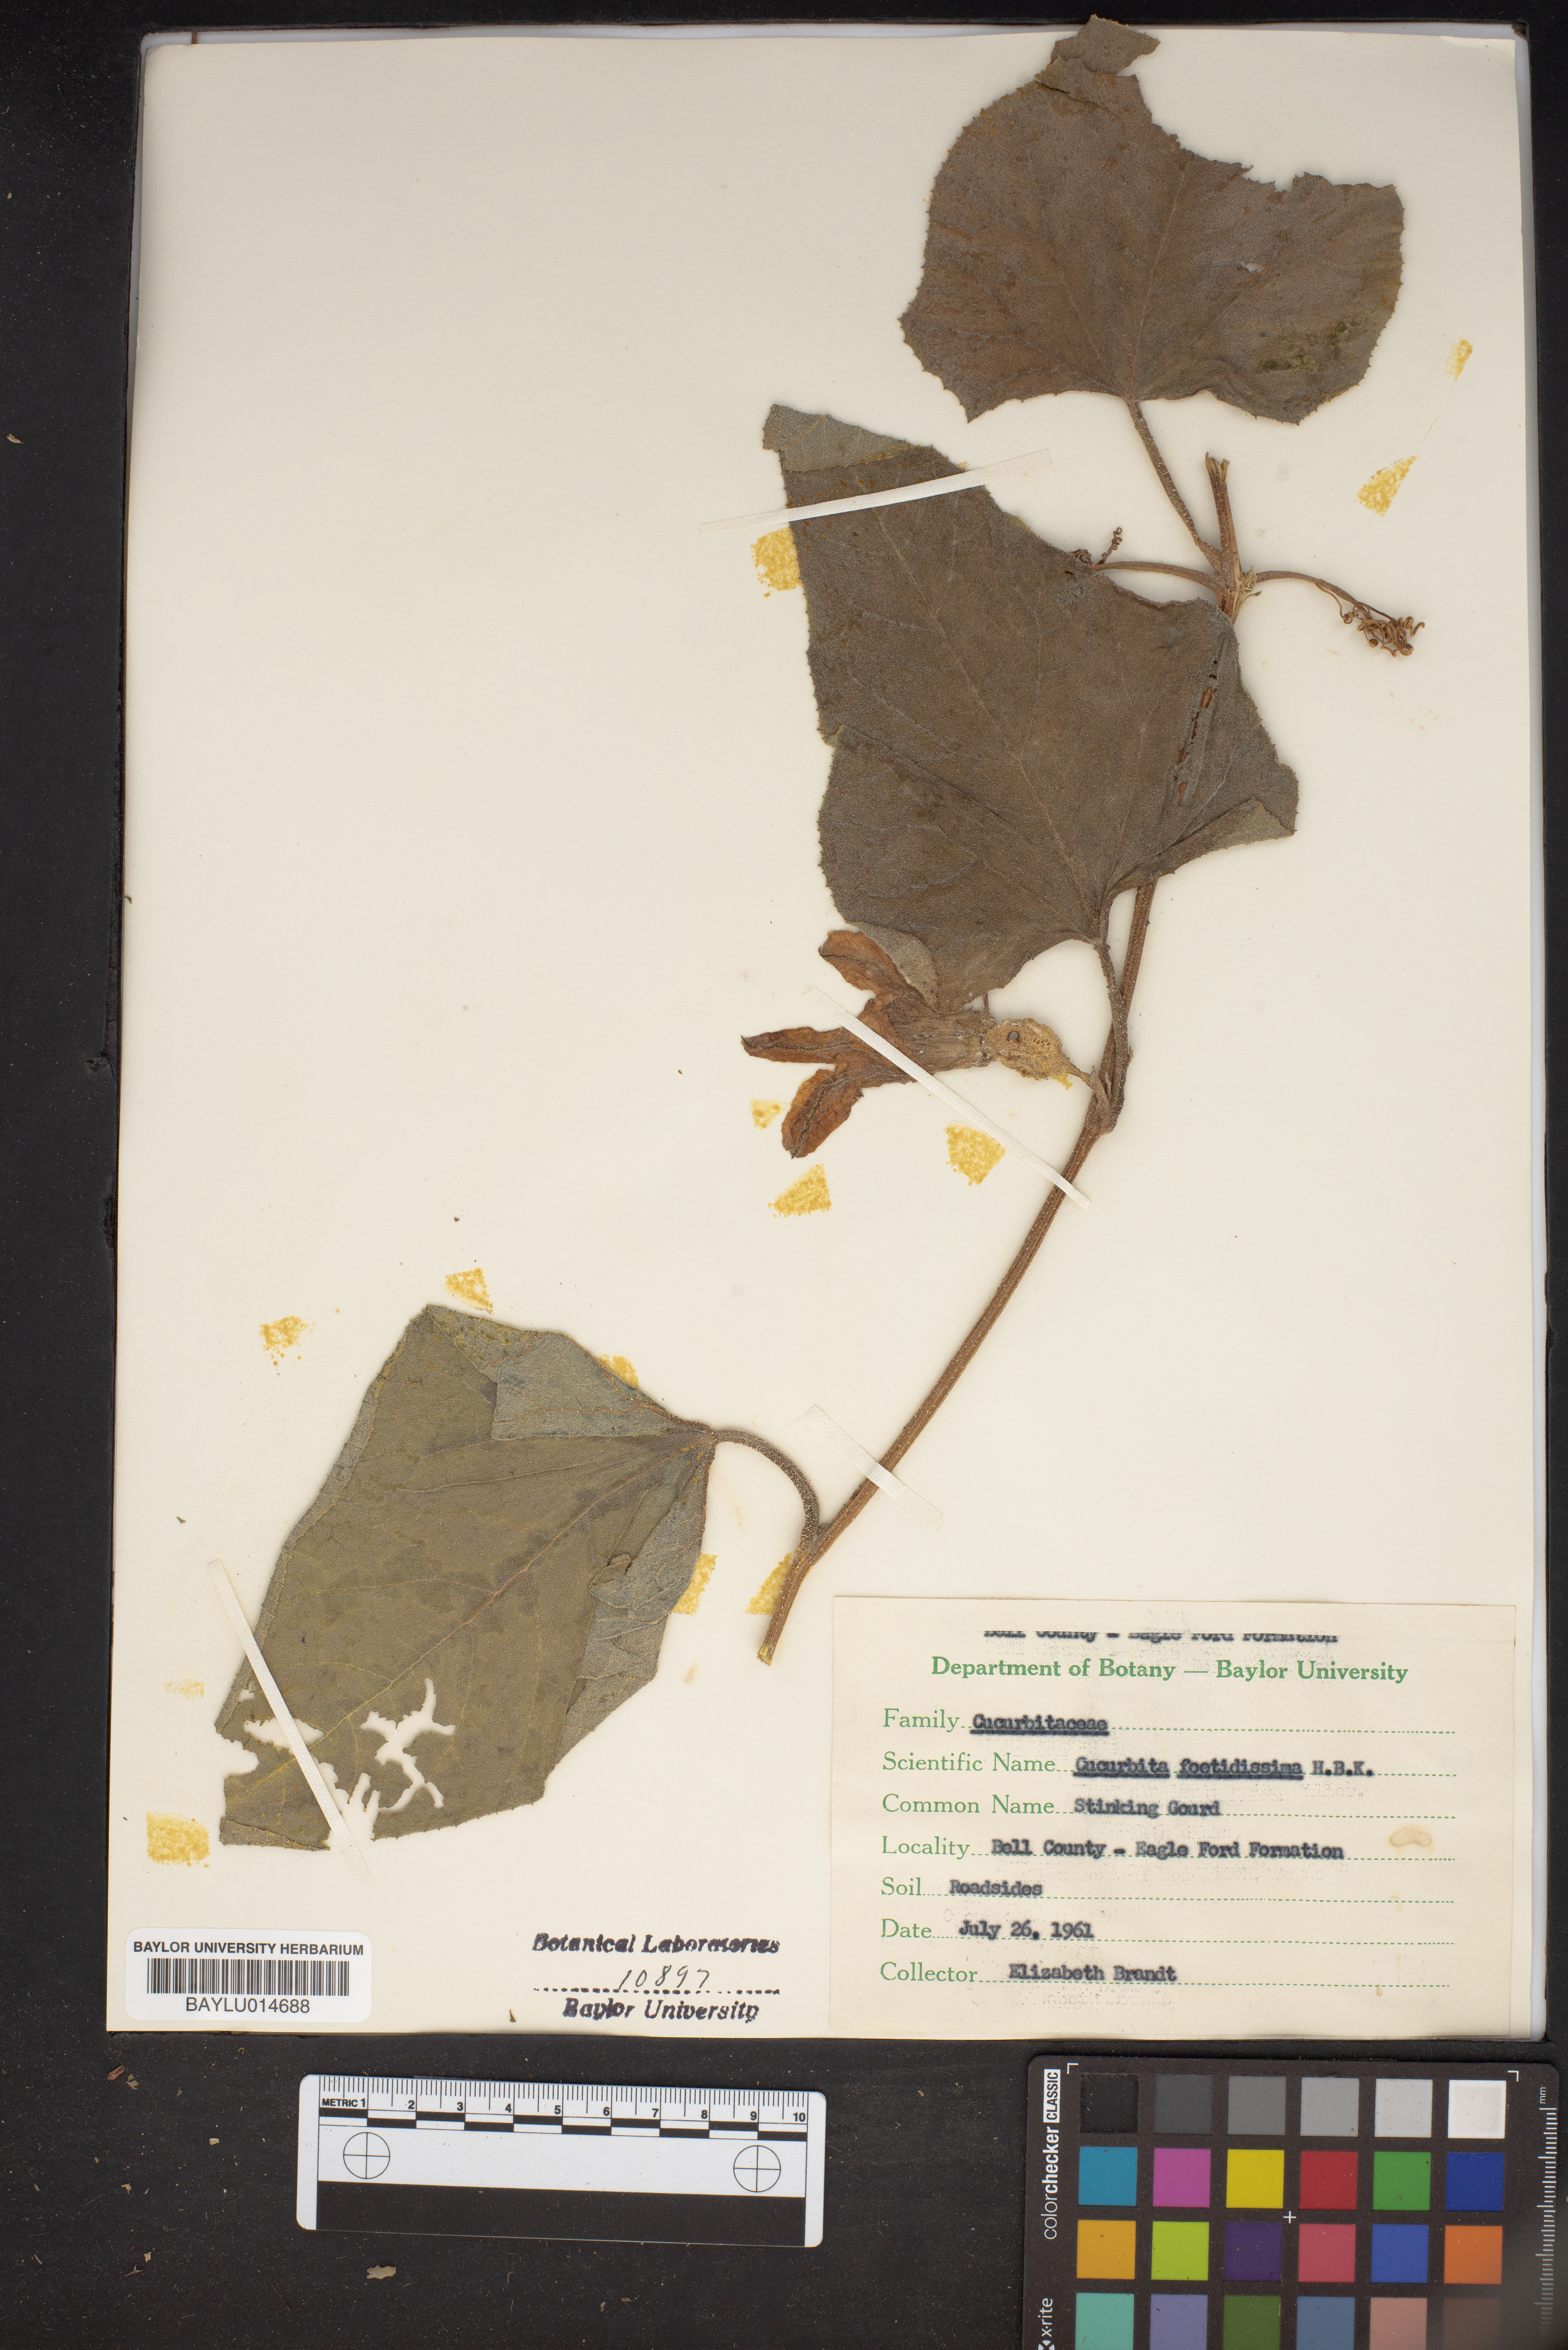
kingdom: Plantae
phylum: Tracheophyta
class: Magnoliopsida
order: Cucurbitales
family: Cucurbitaceae
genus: Cucurbita
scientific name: Cucurbita foetidissima
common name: Buffalo gourd
